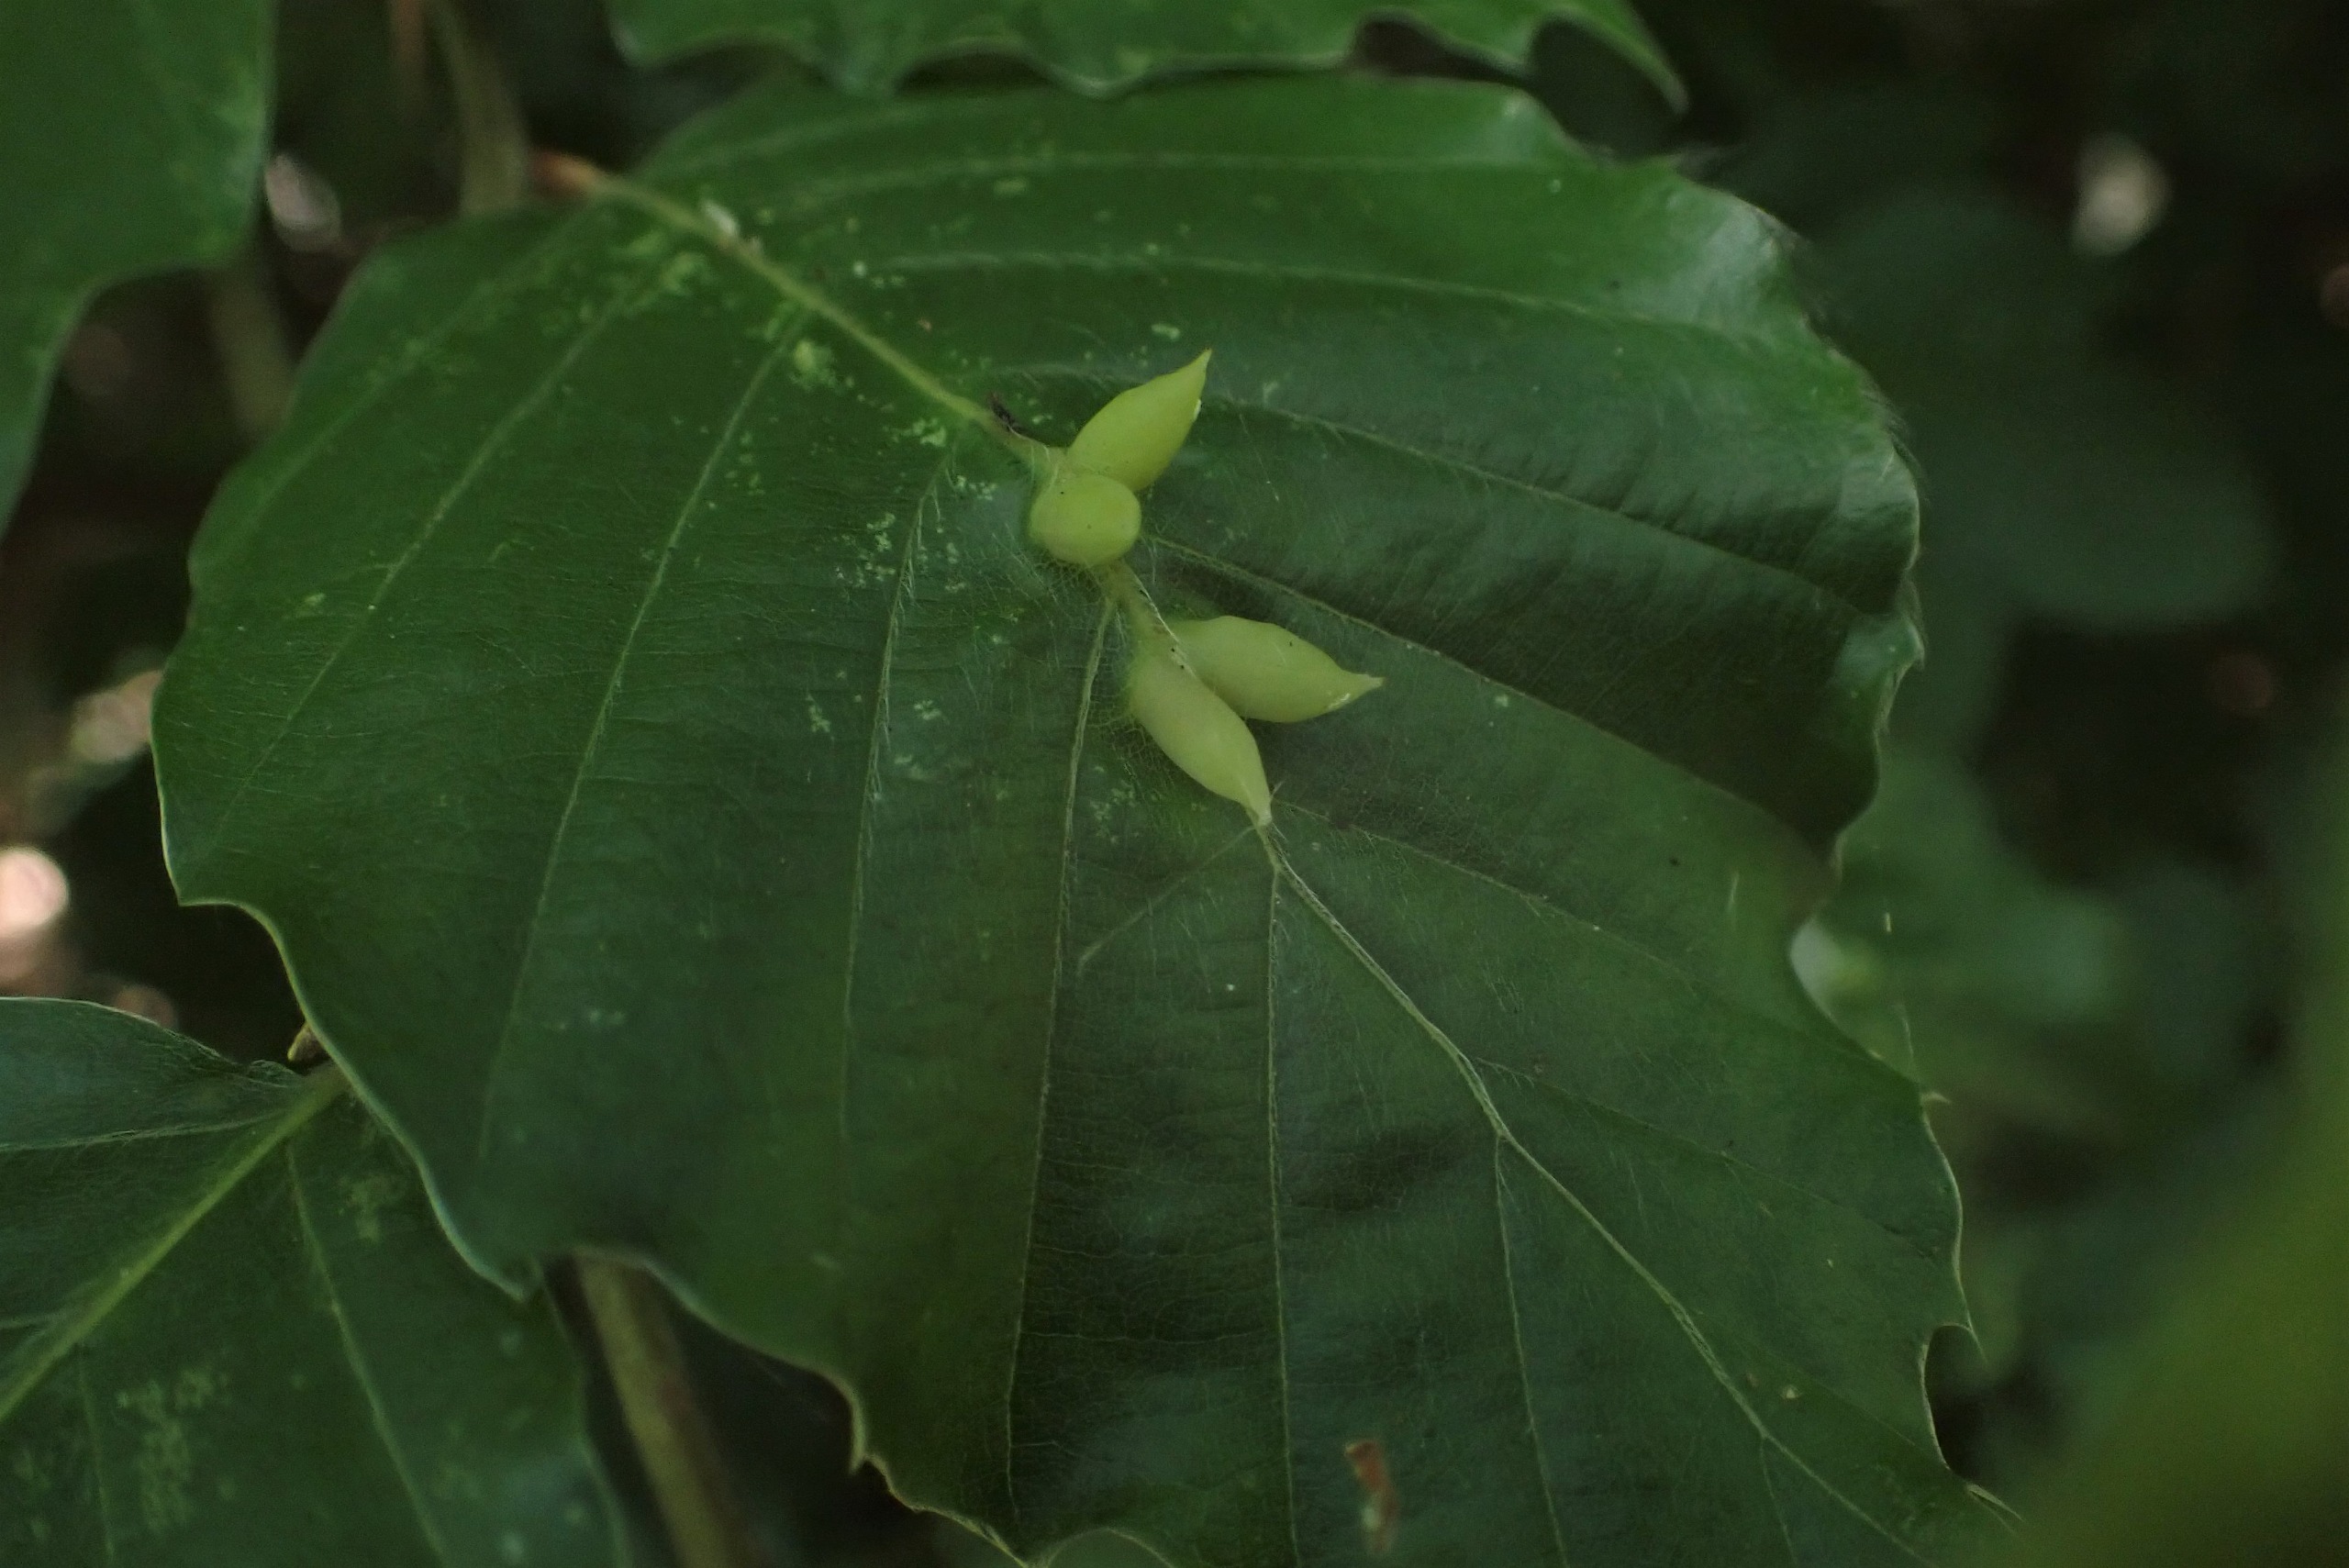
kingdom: Animalia
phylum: Arthropoda
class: Insecta
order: Diptera
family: Cecidomyiidae
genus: Mikiola
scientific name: Mikiola fagi
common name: Bøgegalmyg
